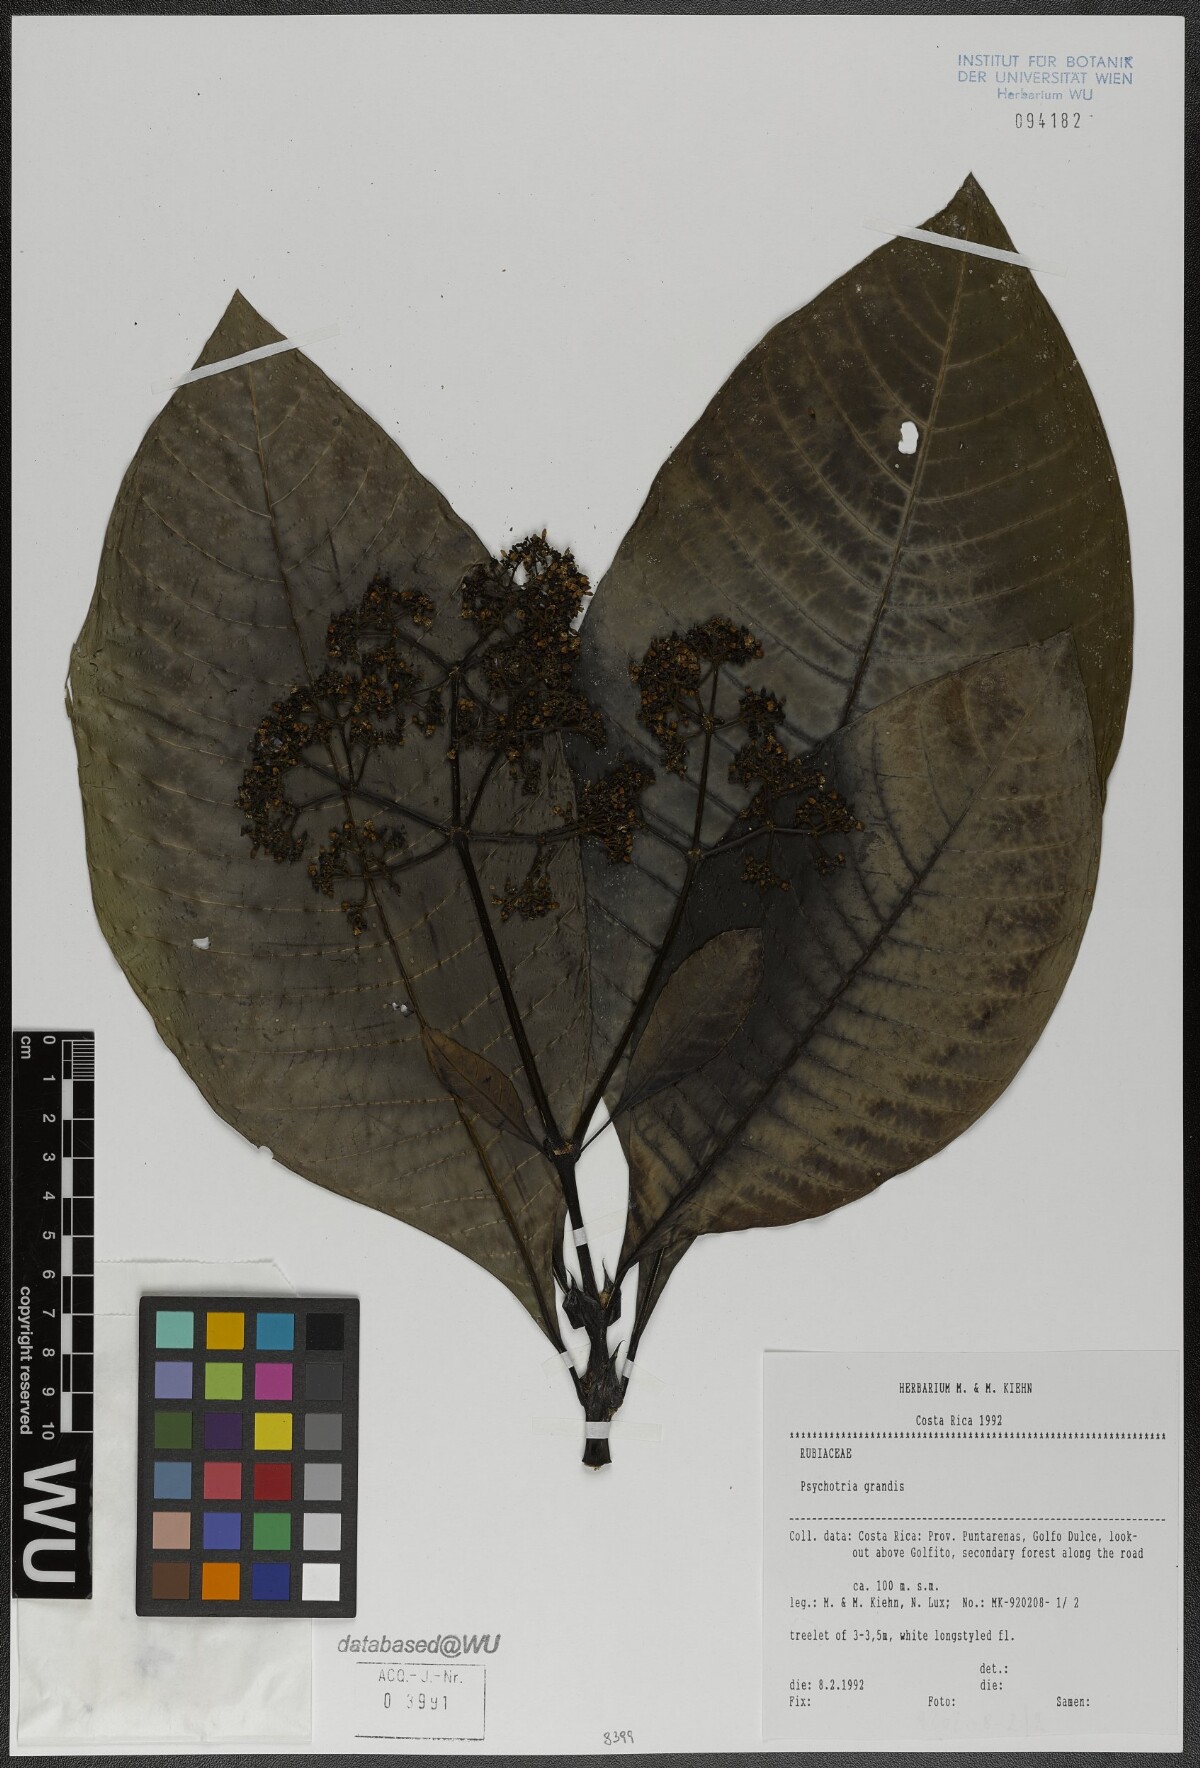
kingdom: Plantae
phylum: Tracheophyta
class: Magnoliopsida
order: Gentianales
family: Rubiaceae
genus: Psychotria
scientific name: Psychotria grandis
